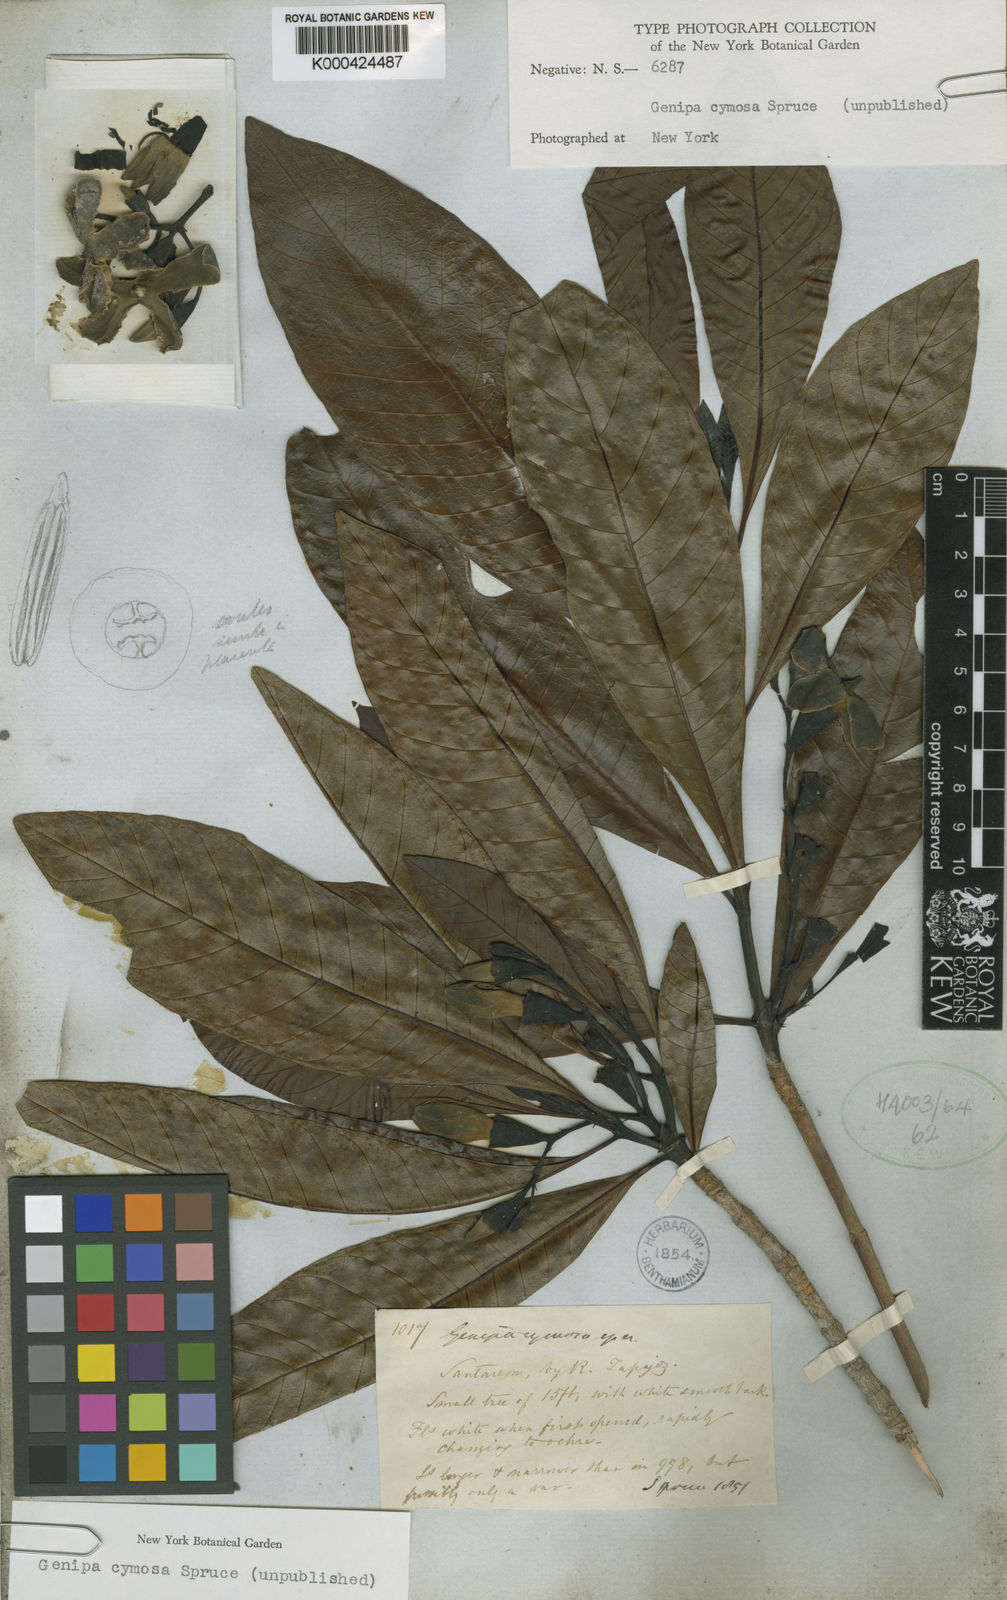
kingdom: Plantae
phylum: Tracheophyta
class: Magnoliopsida
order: Gentianales
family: Rubiaceae
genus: Genipa
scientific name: Genipa americana
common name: Genipap
